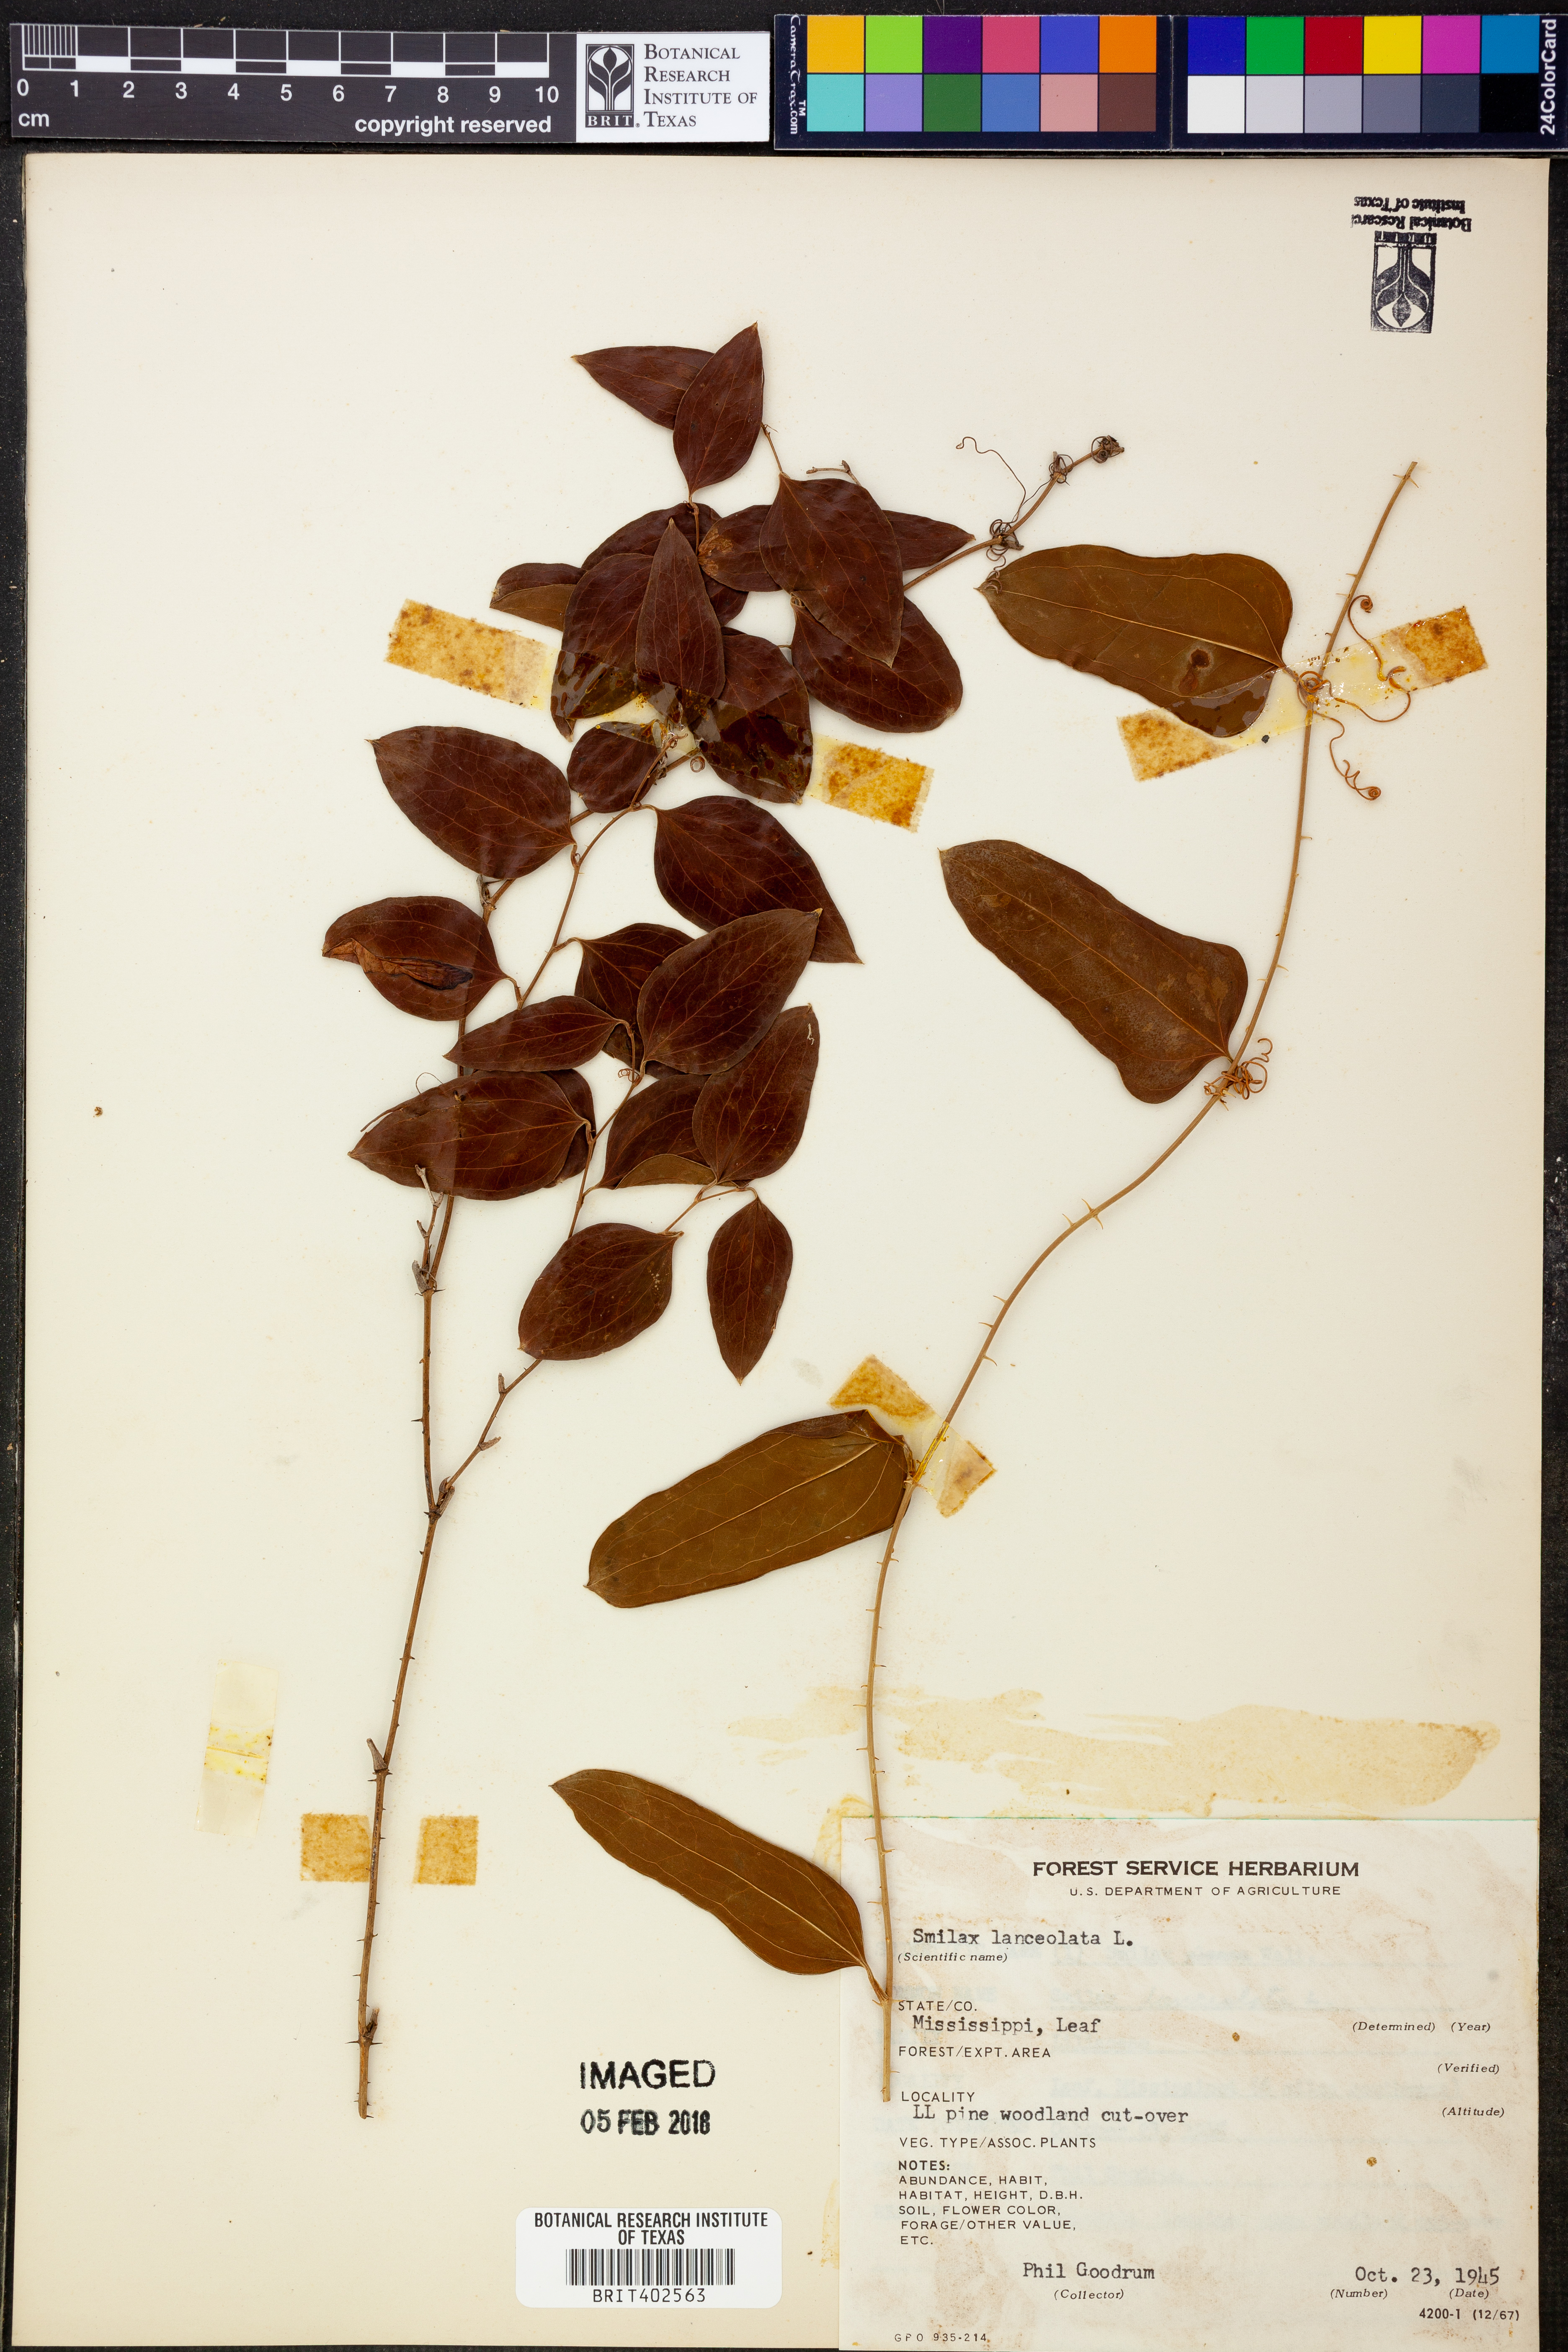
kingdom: Plantae
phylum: Tracheophyta
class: Liliopsida
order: Liliales
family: Smilacaceae
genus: Smilax
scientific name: Smilax laurifolia
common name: Bamboovine
